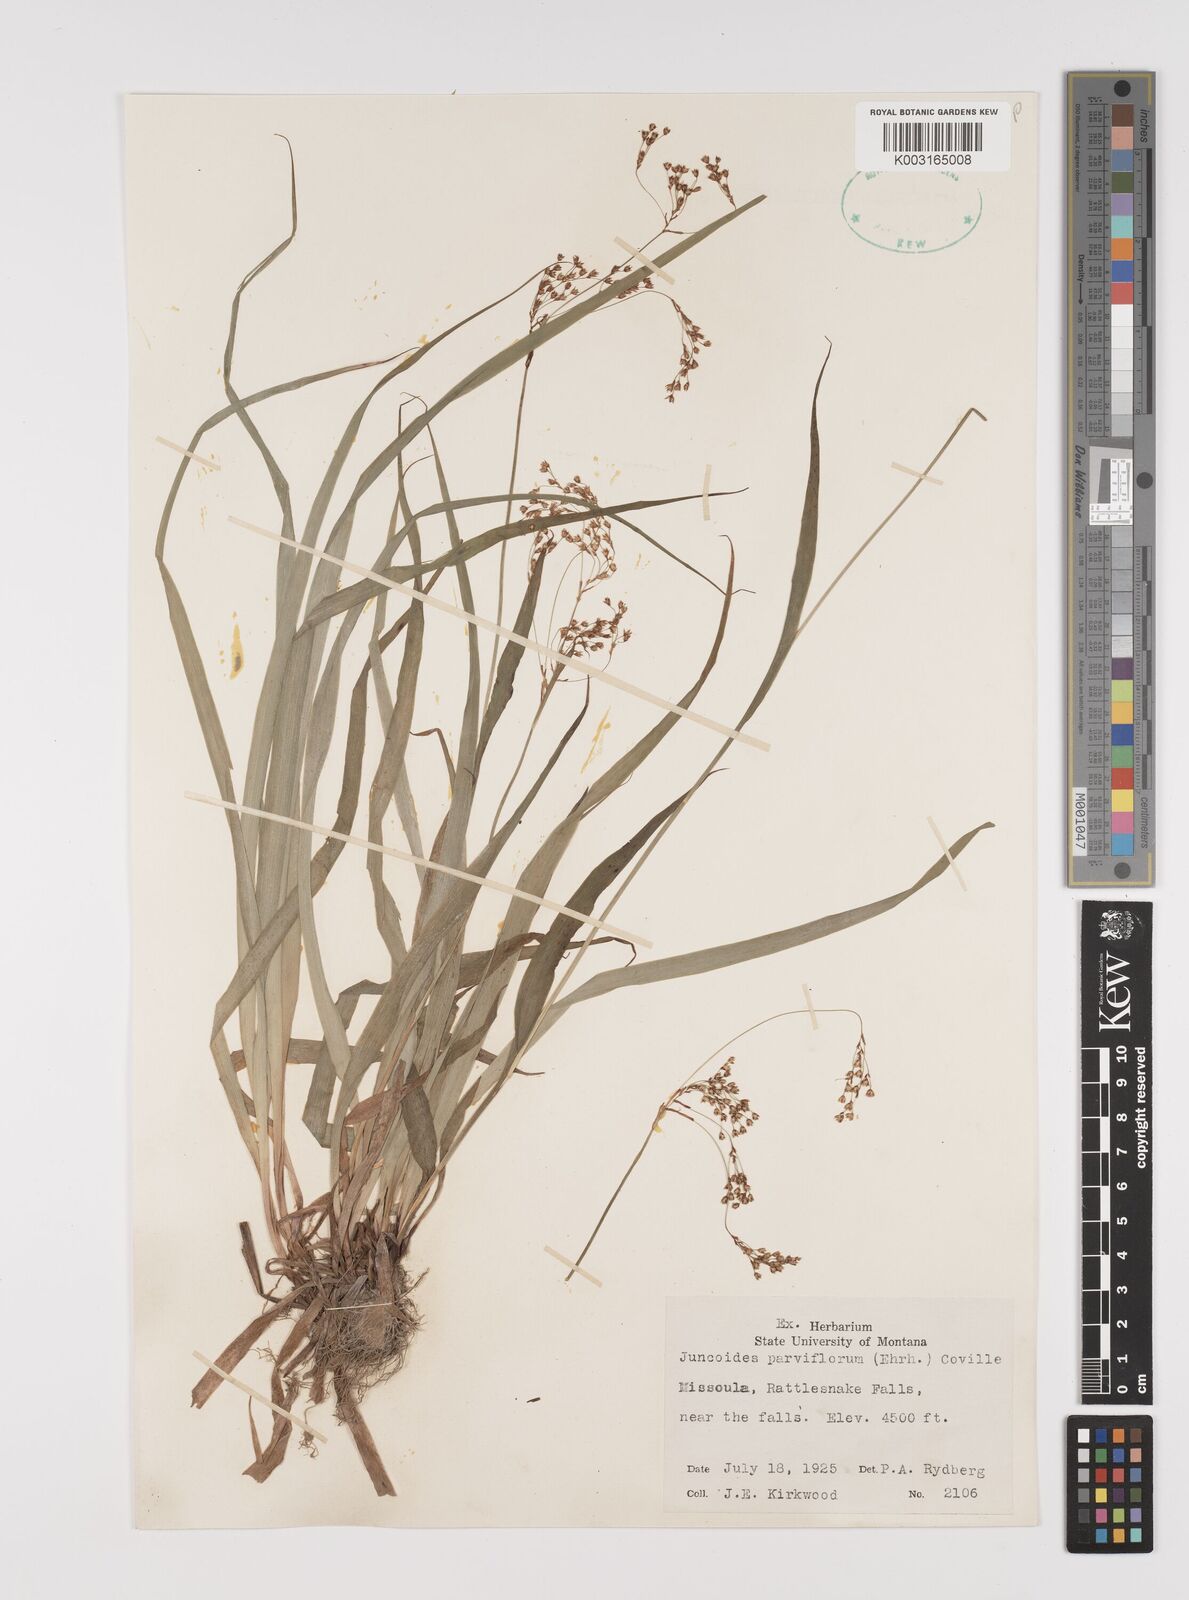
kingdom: Plantae
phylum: Tracheophyta
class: Liliopsida
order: Poales
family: Juncaceae
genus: Luzula
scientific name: Luzula parviflora
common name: Millet woodrush
